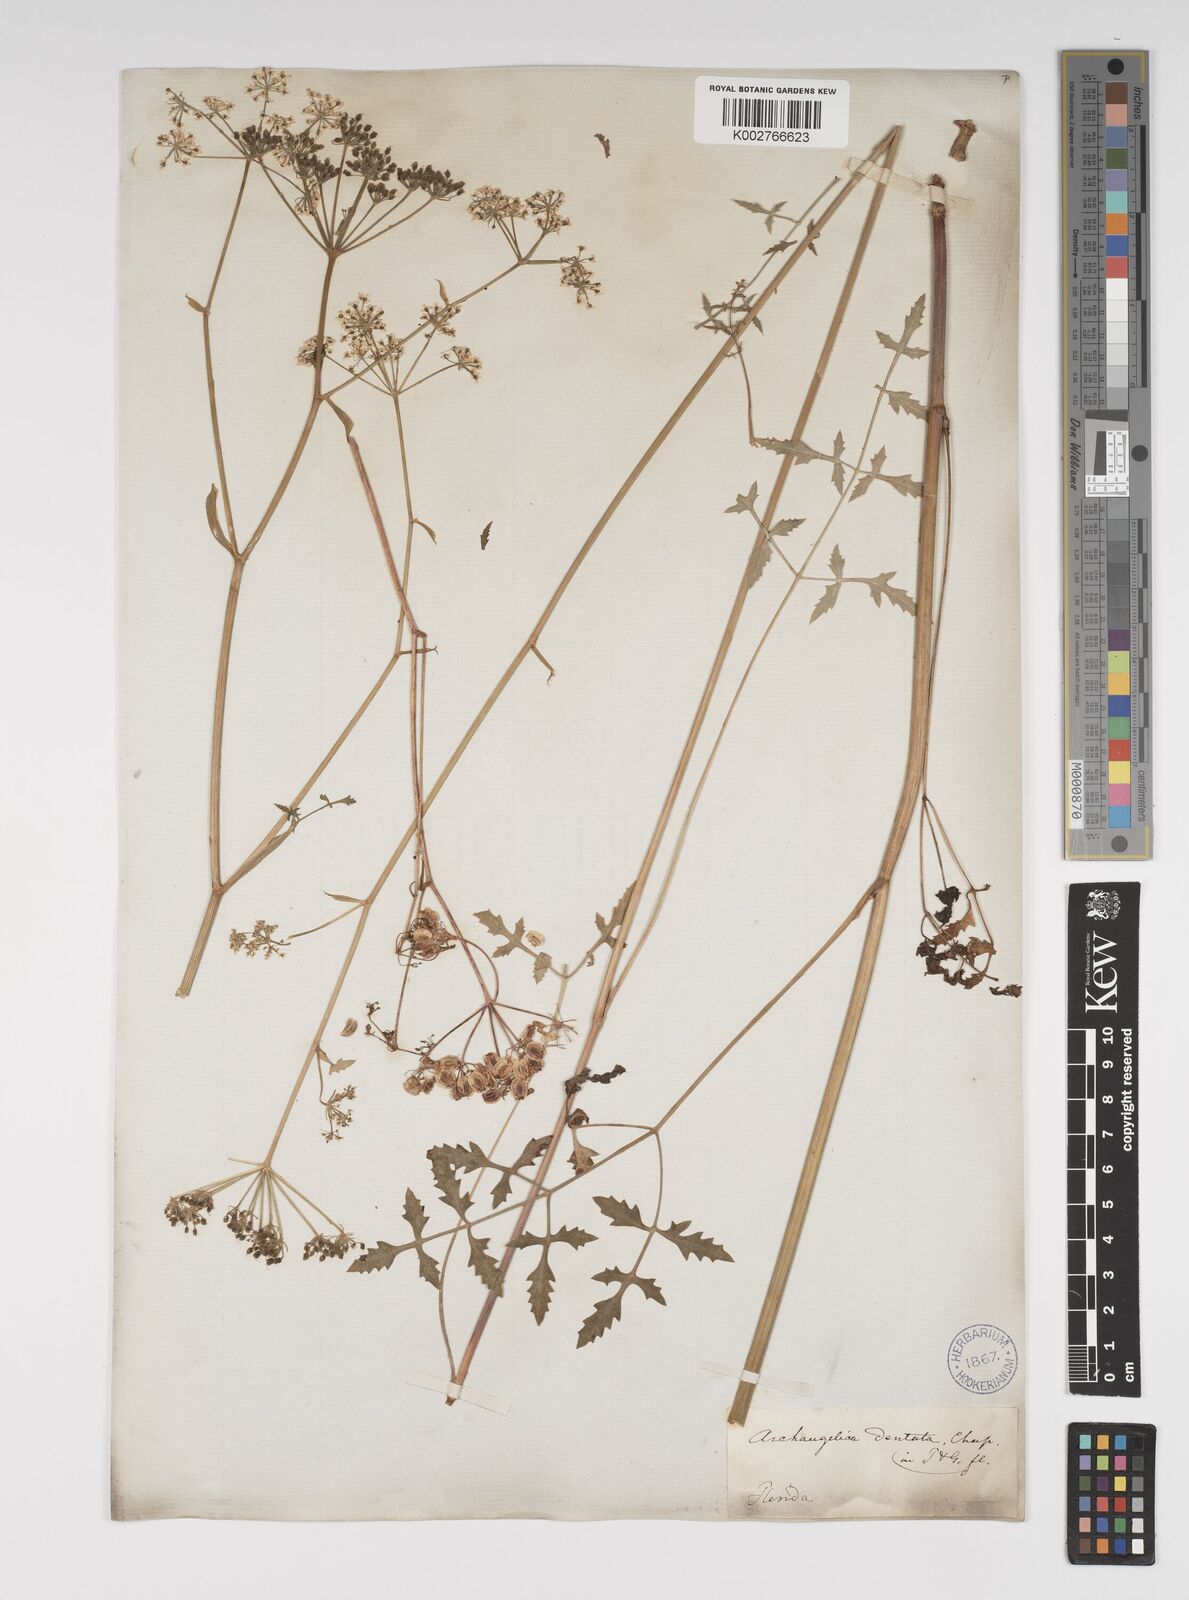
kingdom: Plantae
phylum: Tracheophyta
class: Magnoliopsida
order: Apiales
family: Apiaceae
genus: Angelica
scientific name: Angelica venenosa
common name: Hairy angelica
